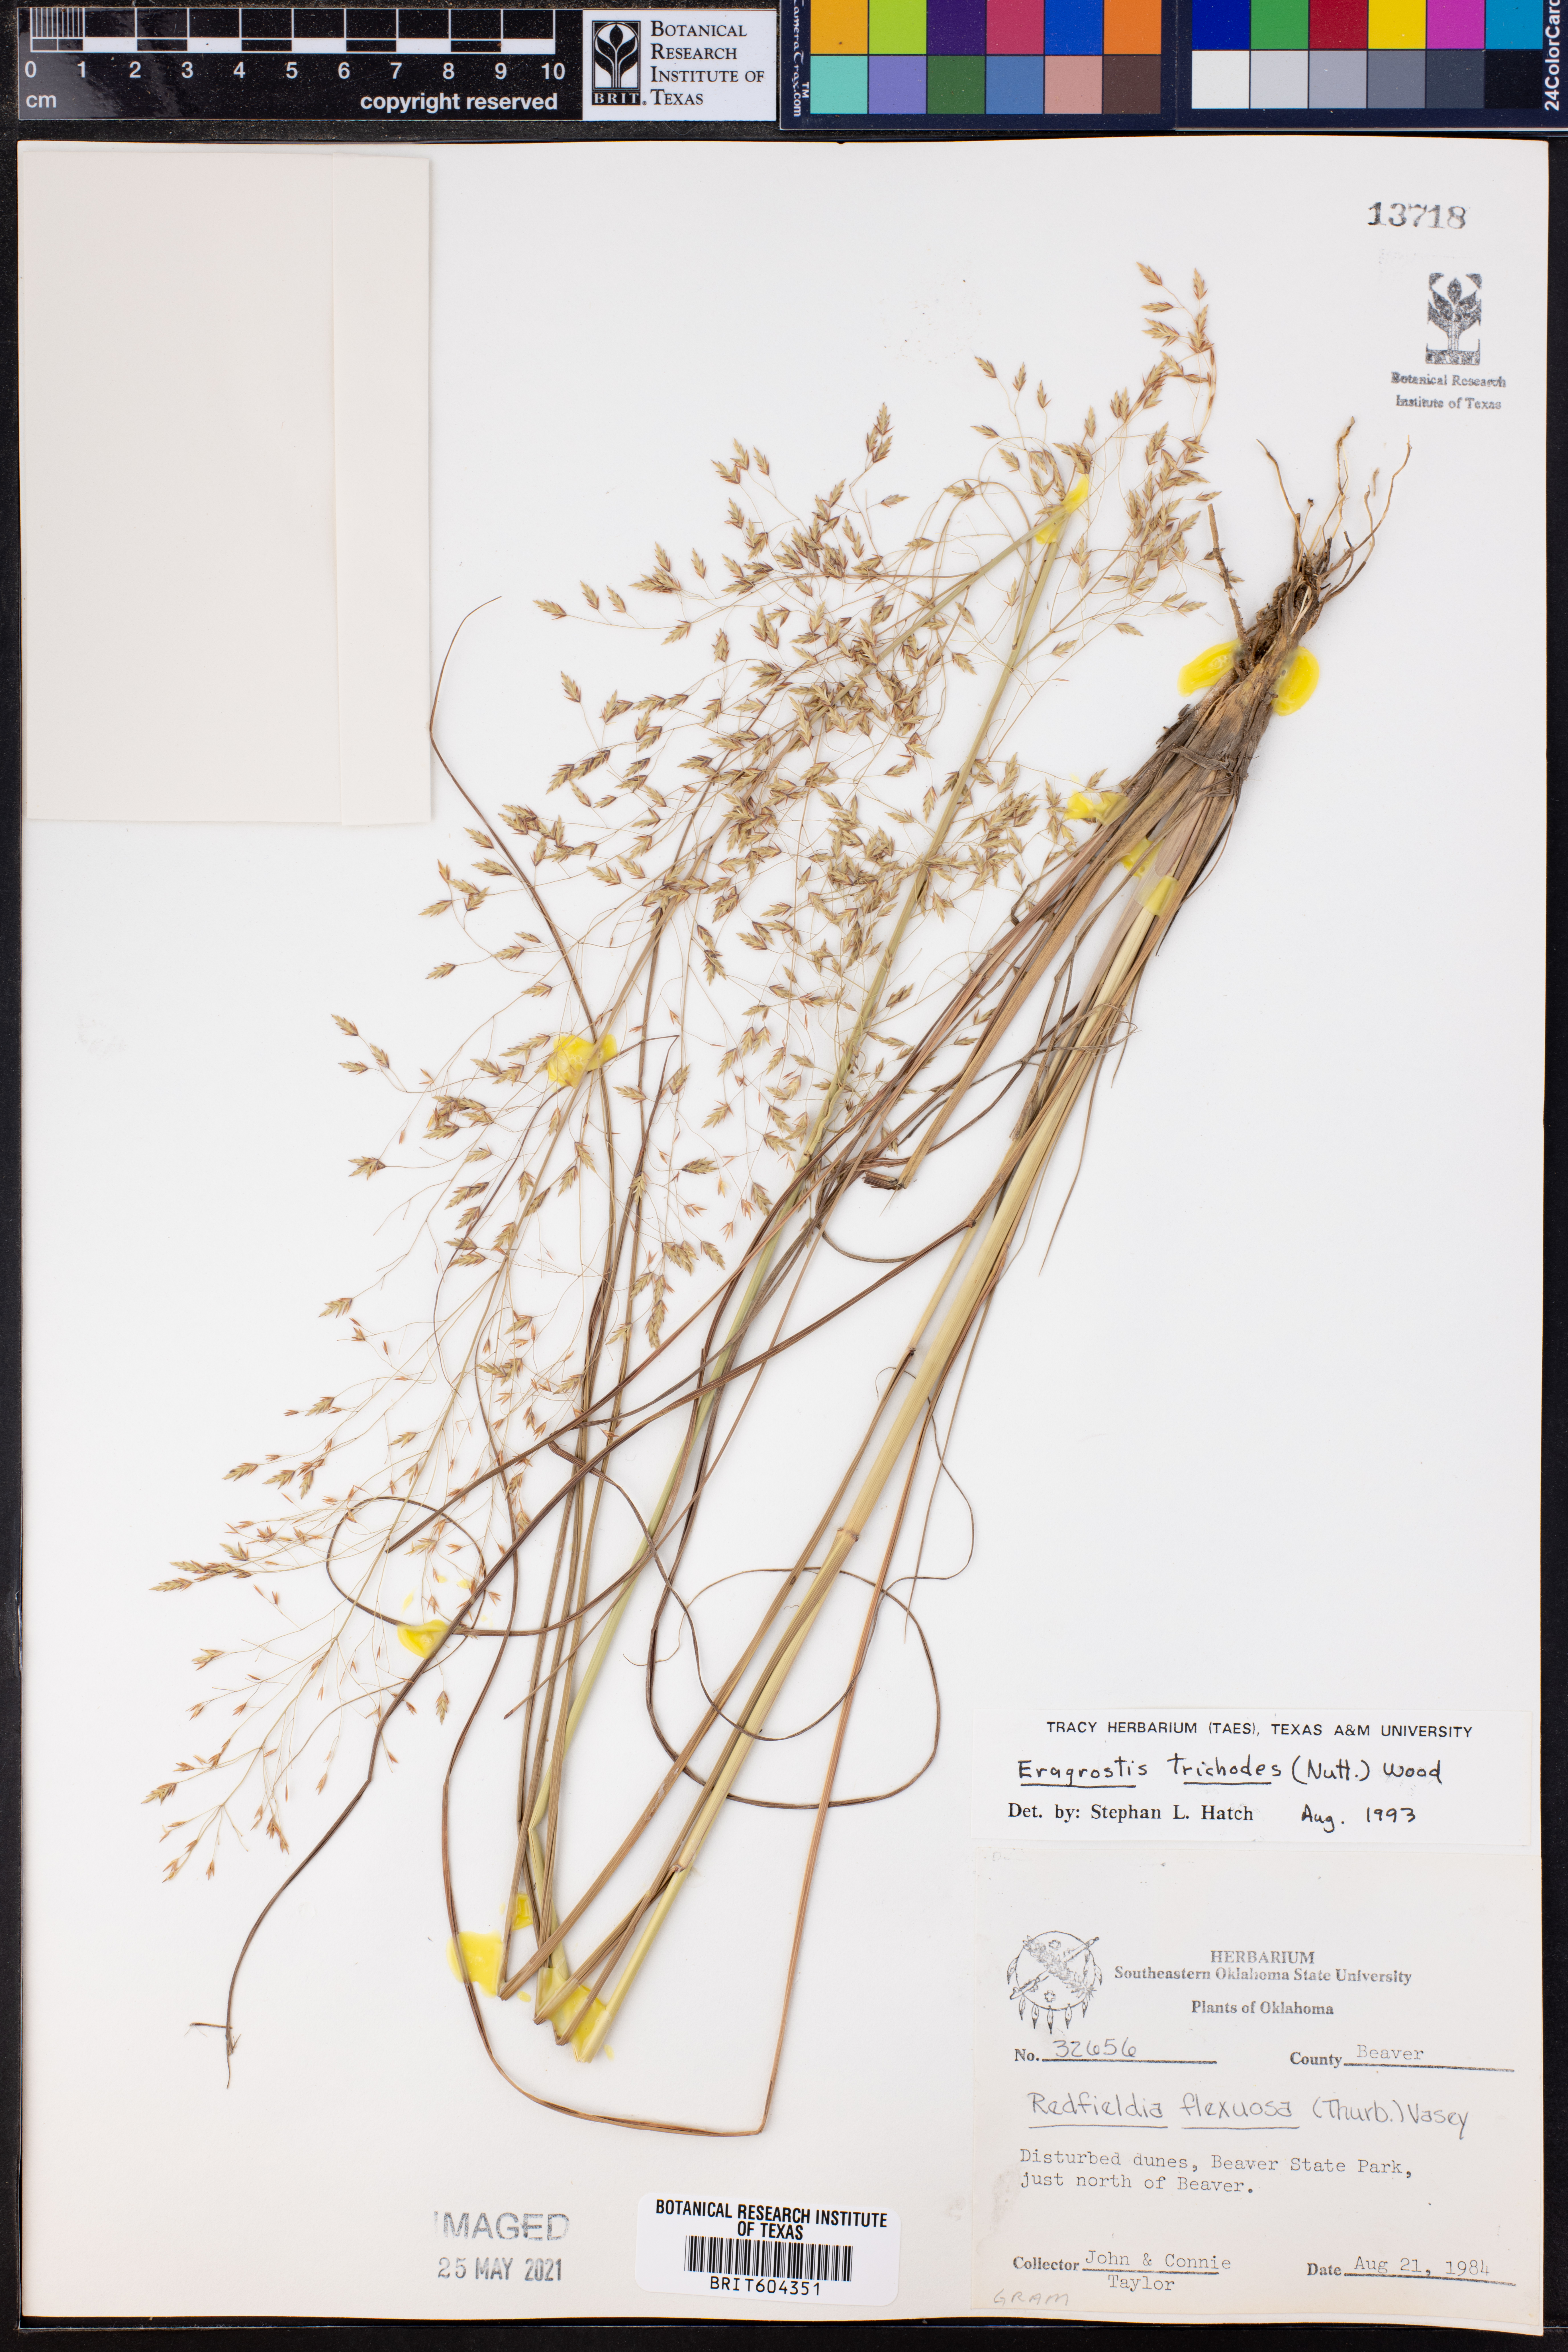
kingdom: Plantae
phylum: Tracheophyta
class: Liliopsida
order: Poales
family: Poaceae
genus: Eragrostis
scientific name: Eragrostis trichodes
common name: Sand love grass
